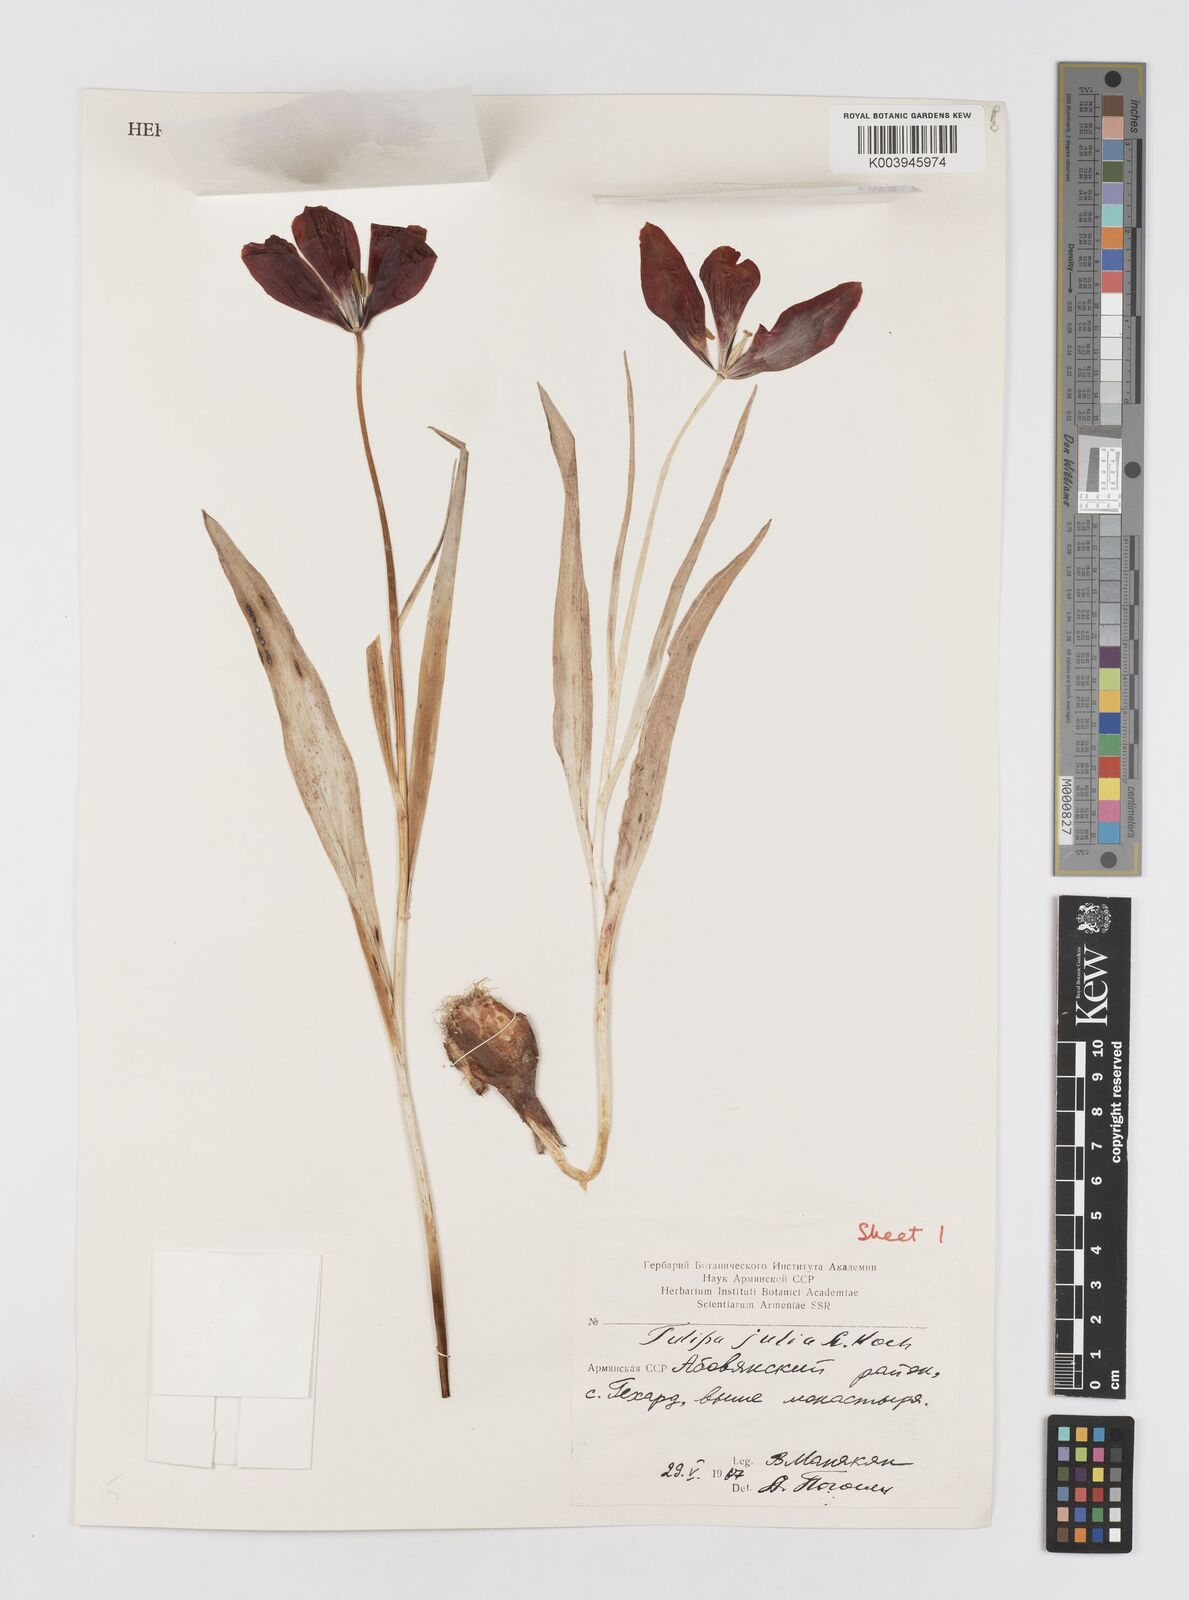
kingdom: Plantae
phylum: Tracheophyta
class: Liliopsida
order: Liliales
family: Liliaceae
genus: Tulipa
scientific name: Tulipa julia
